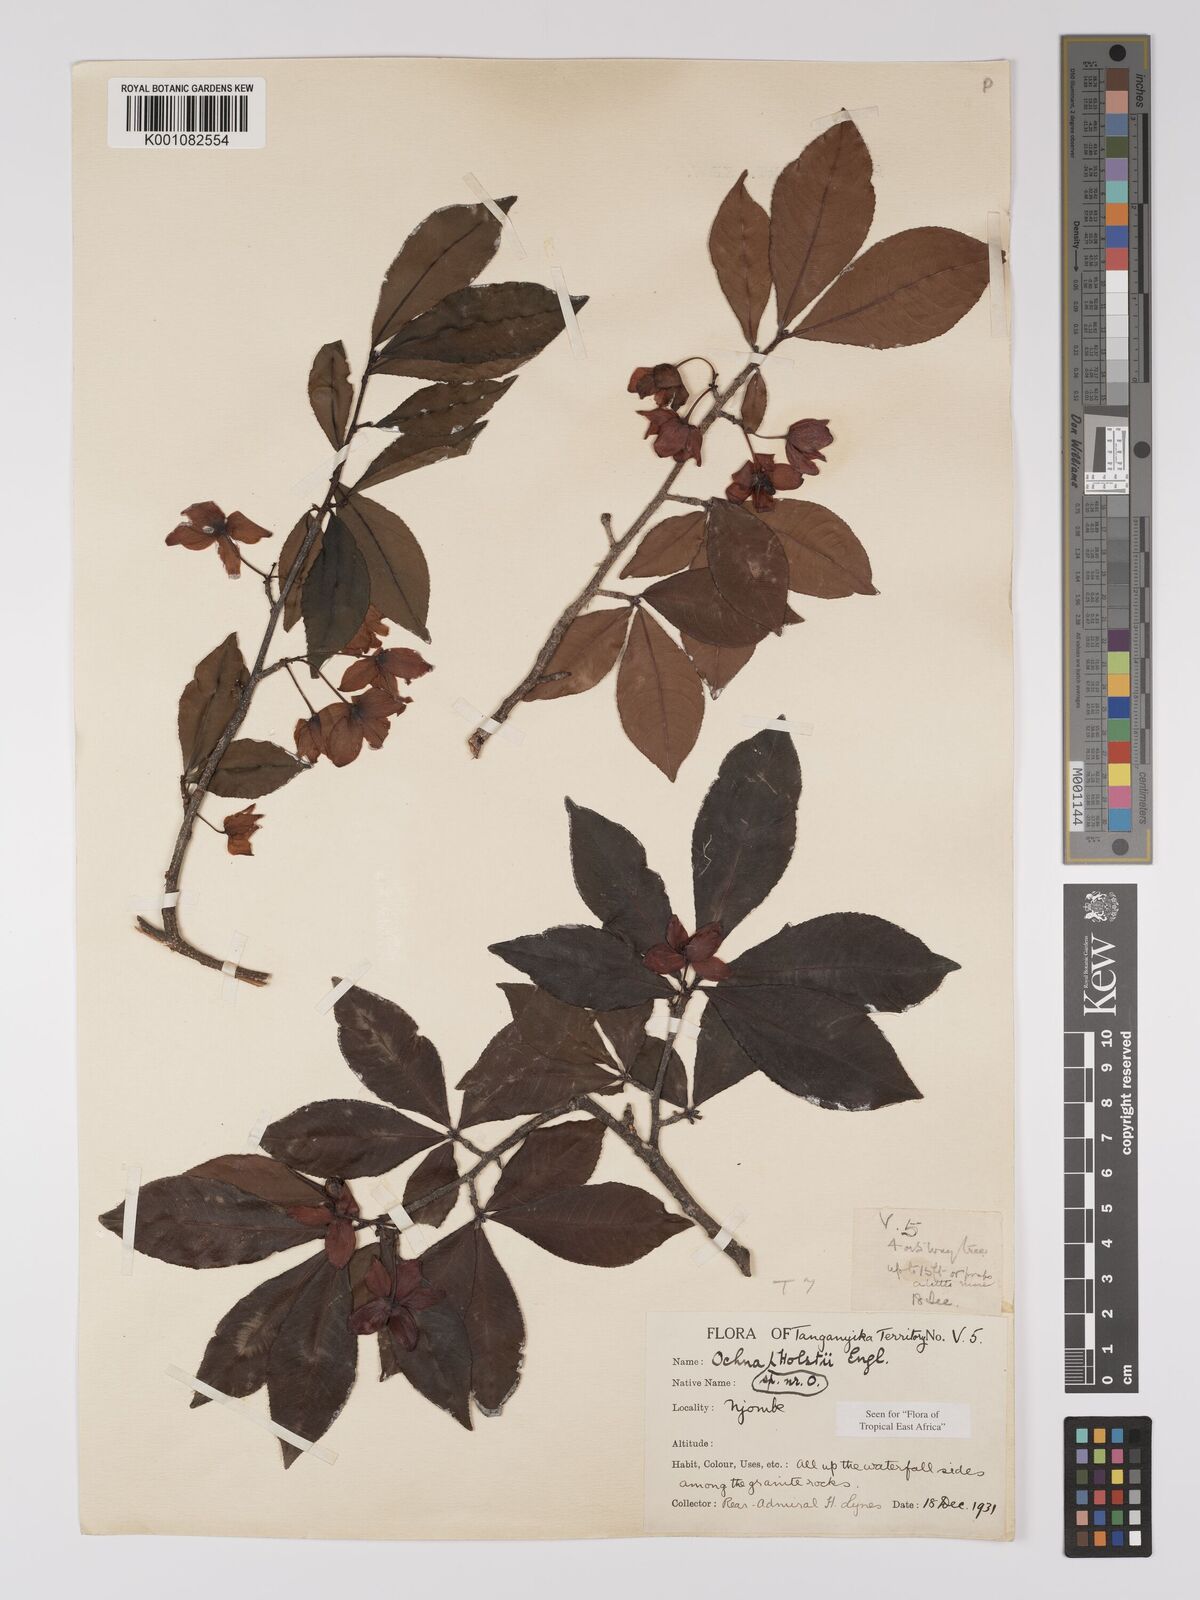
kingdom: Plantae
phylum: Tracheophyta
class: Magnoliopsida
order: Malpighiales
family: Ochnaceae
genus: Ochna
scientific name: Ochna holstii
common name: Red ironwood
